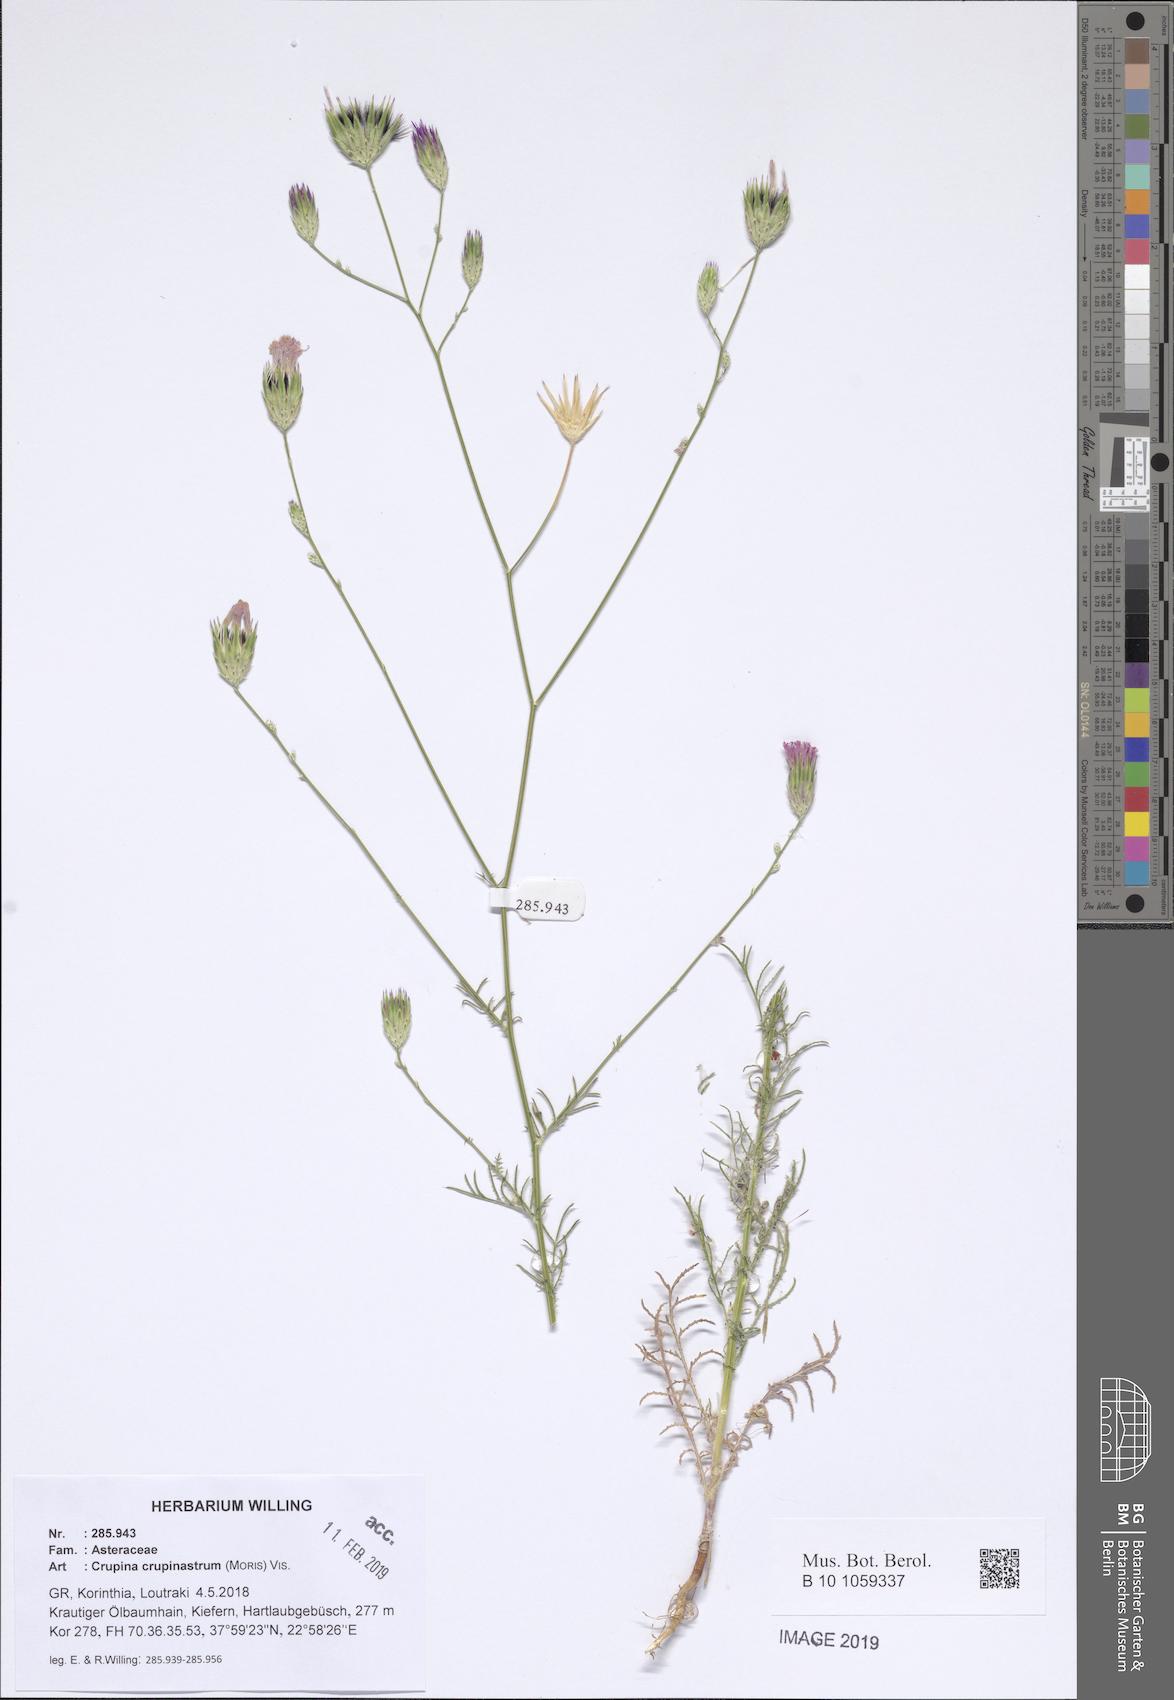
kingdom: Plantae
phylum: Tracheophyta
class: Magnoliopsida
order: Asterales
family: Asteraceae
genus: Crupina
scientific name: Crupina crupinastrum
